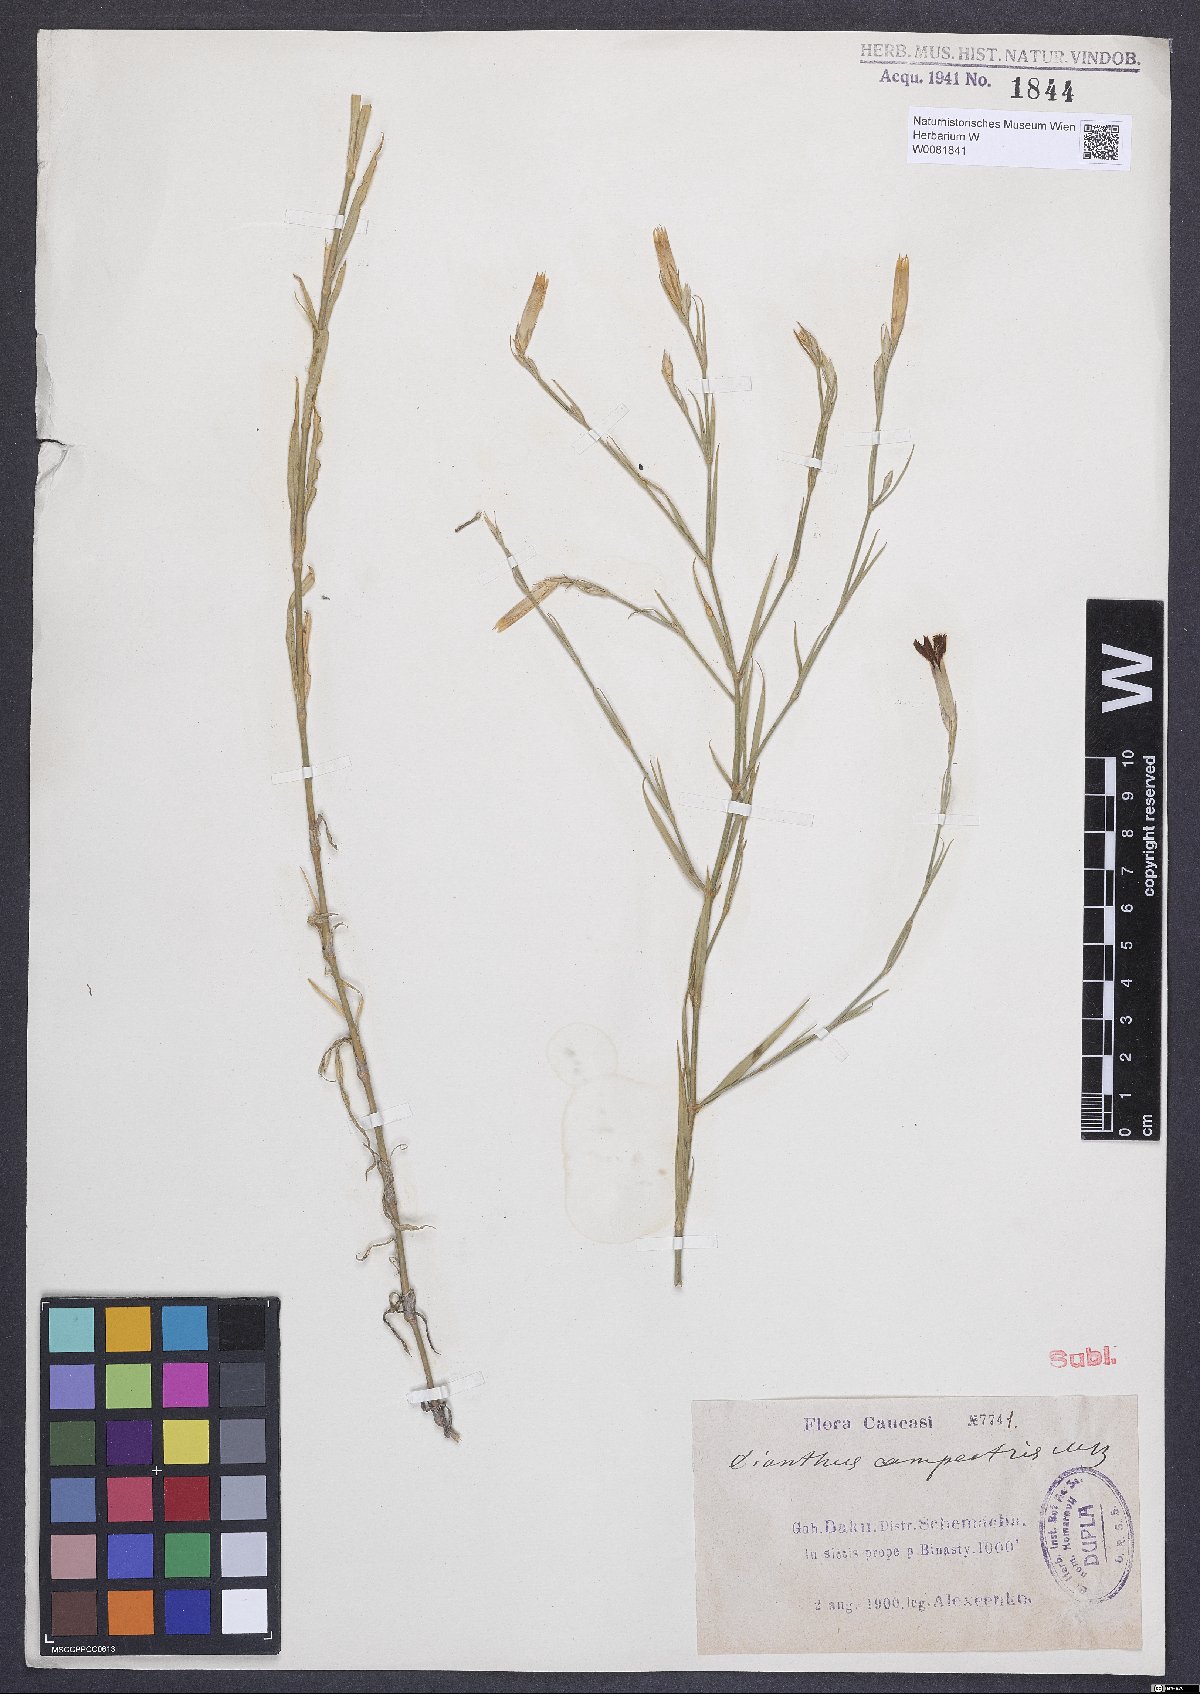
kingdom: Plantae
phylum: Tracheophyta
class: Magnoliopsida
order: Caryophyllales
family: Caryophyllaceae
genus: Dianthus
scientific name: Dianthus campestris
